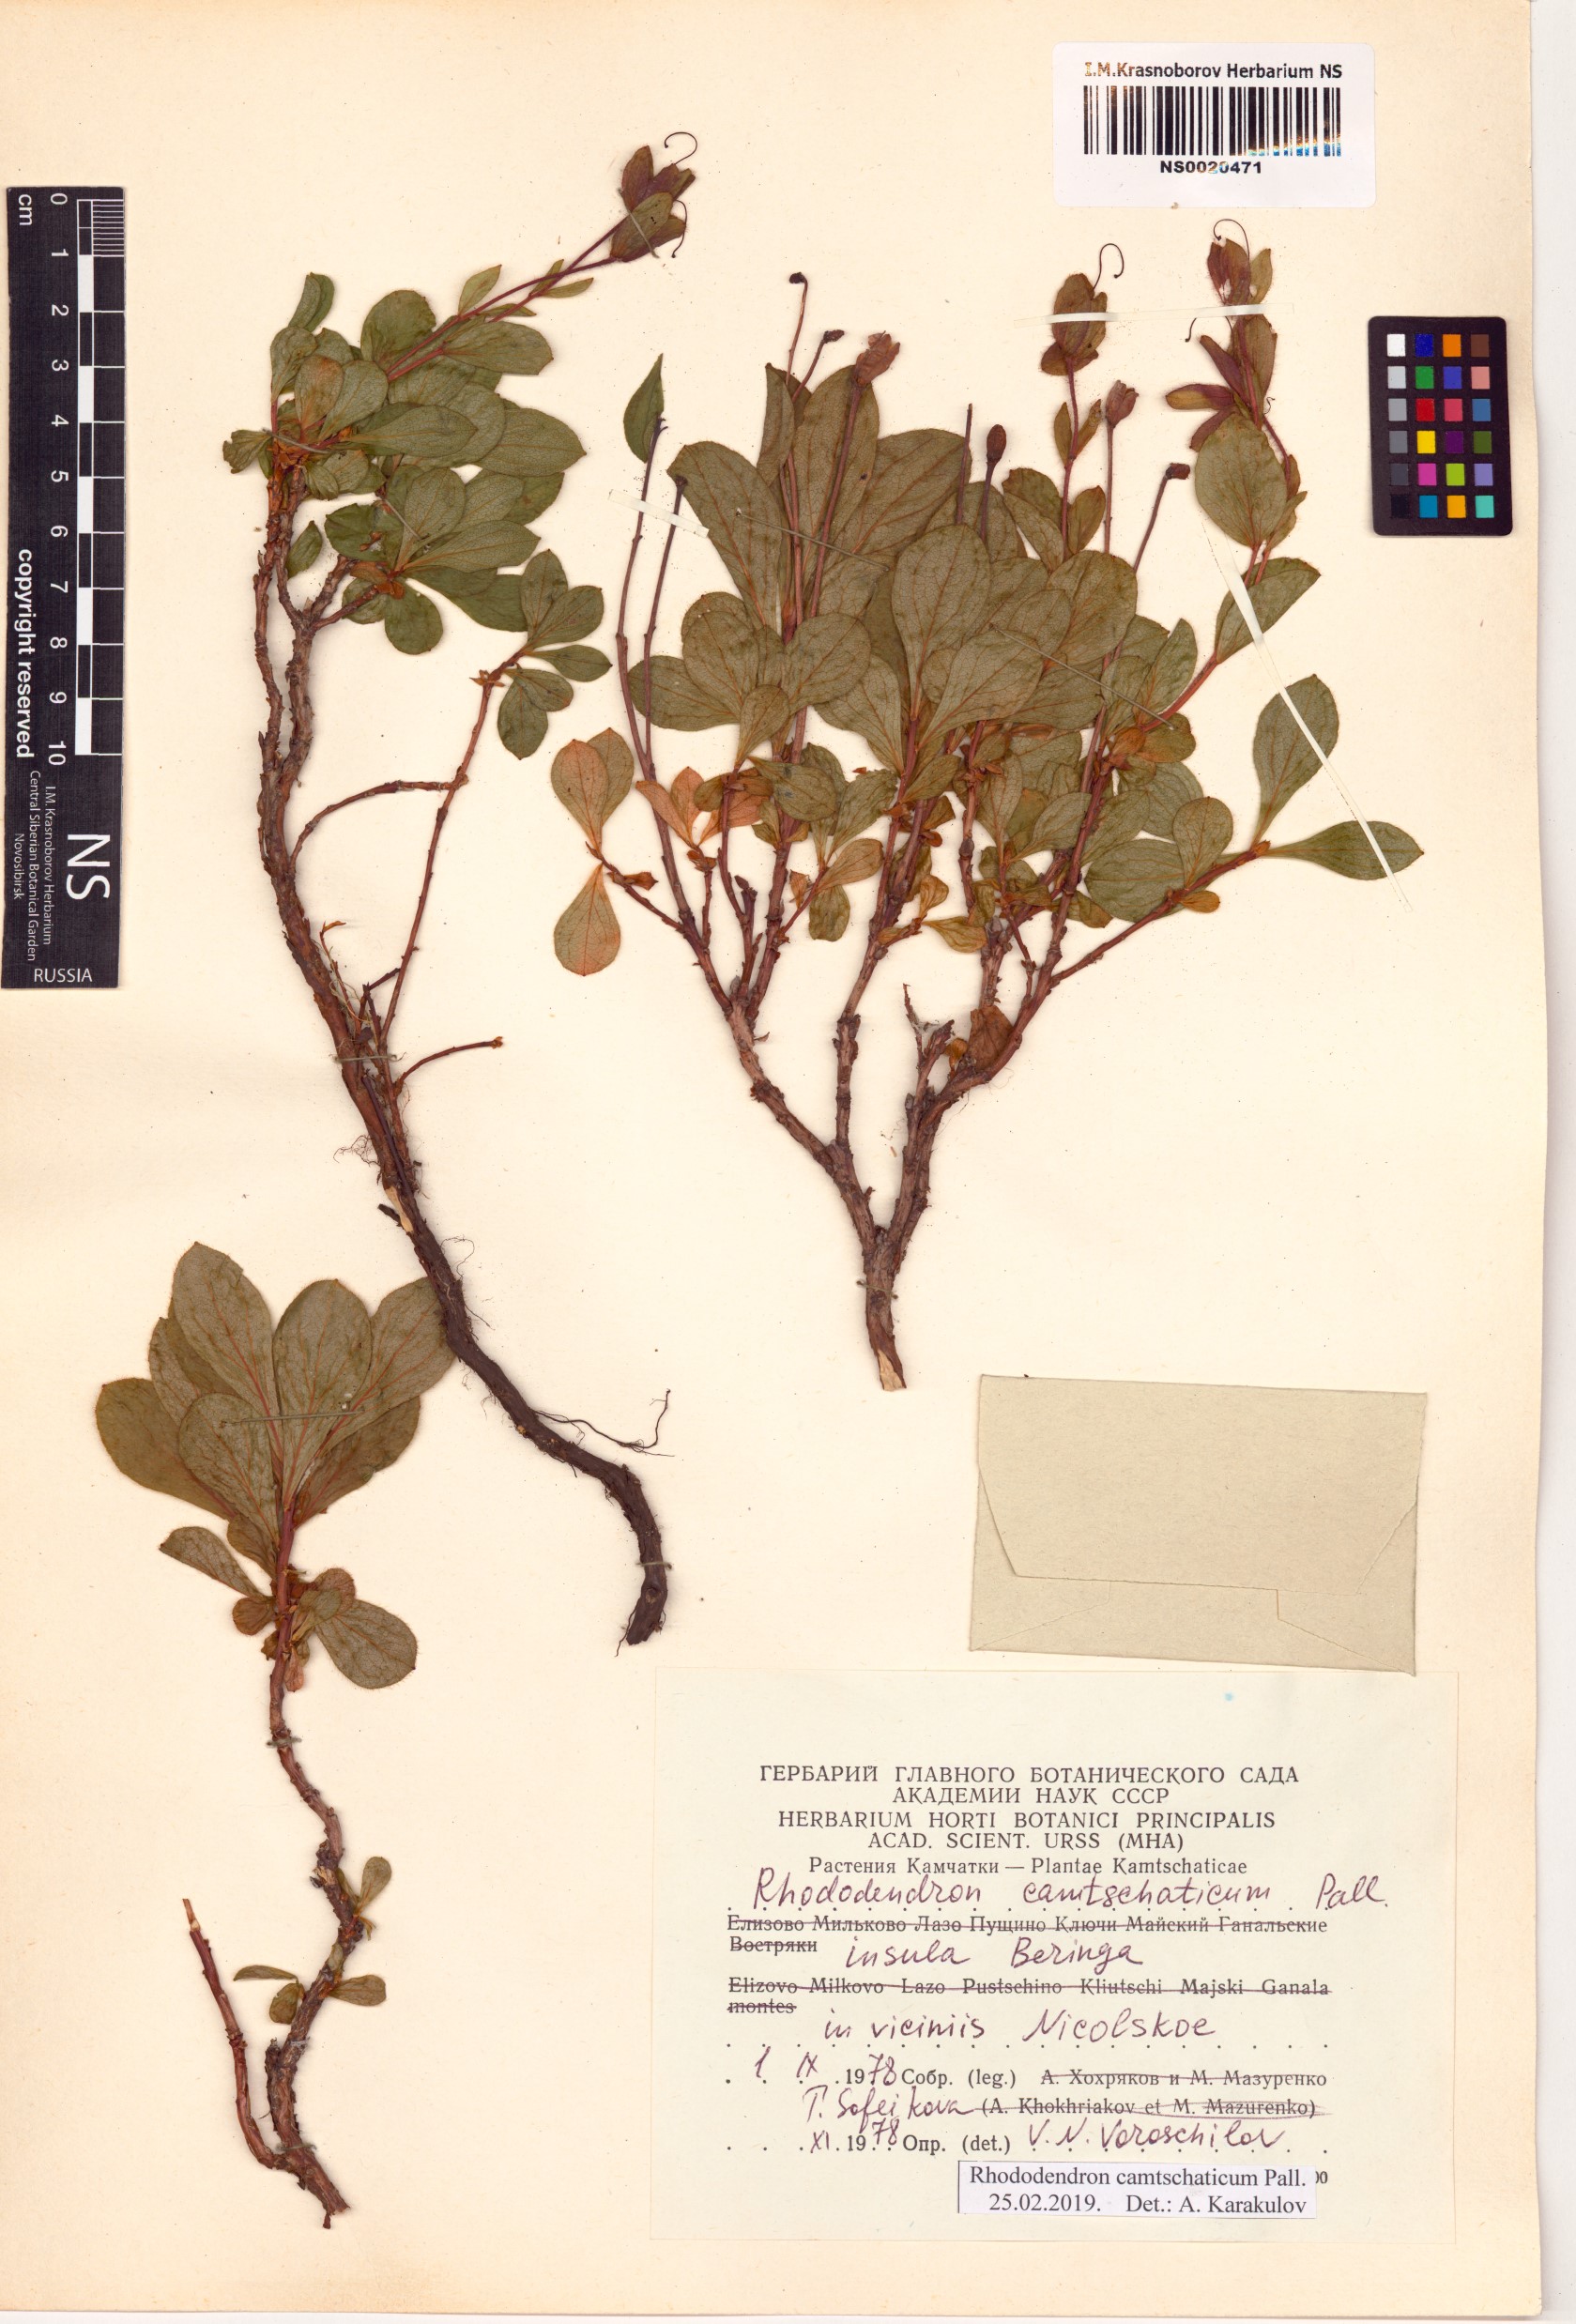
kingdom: Plantae
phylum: Tracheophyta
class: Magnoliopsida
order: Ericales
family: Ericaceae
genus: Rhododendron
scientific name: Rhododendron camtschaticum
